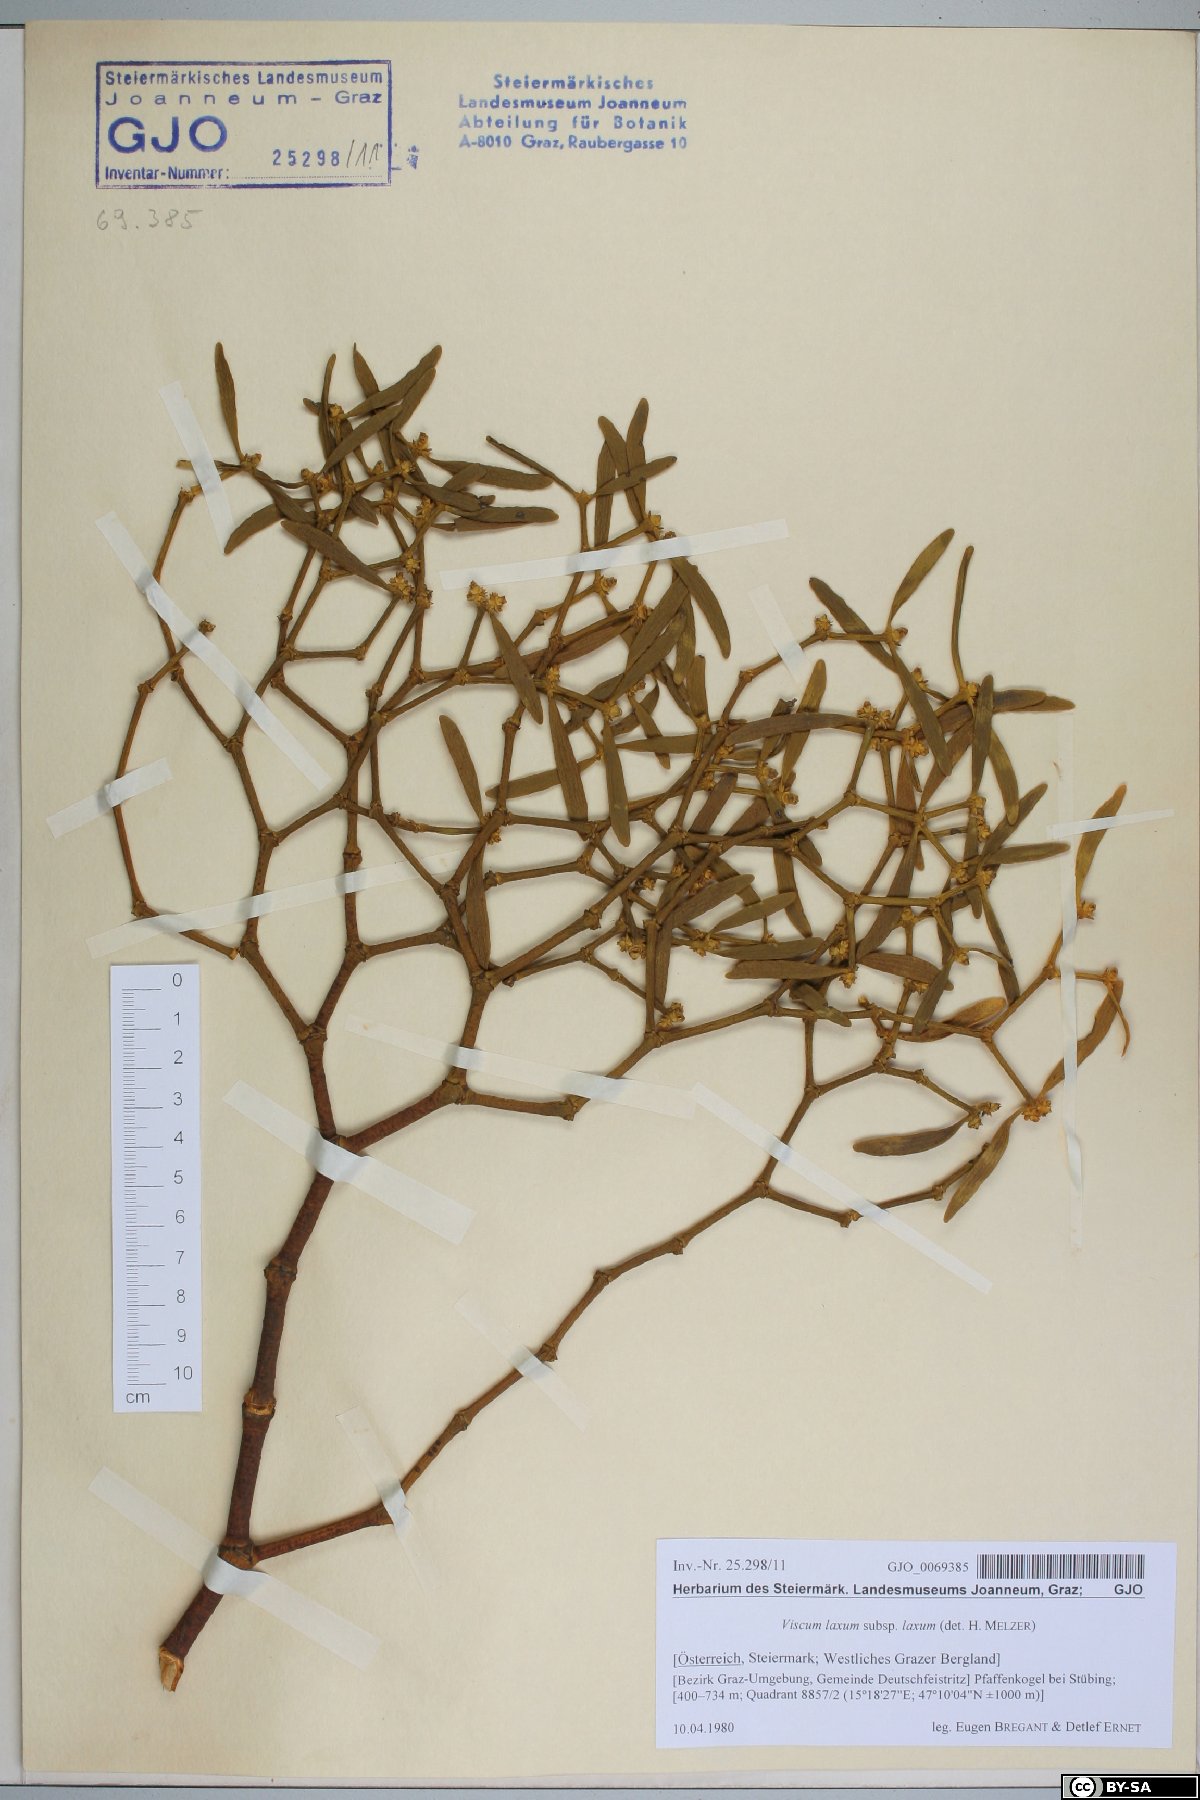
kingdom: Plantae
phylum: Tracheophyta
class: Magnoliopsida
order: Santalales
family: Viscaceae
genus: Viscum
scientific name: Viscum laxum
